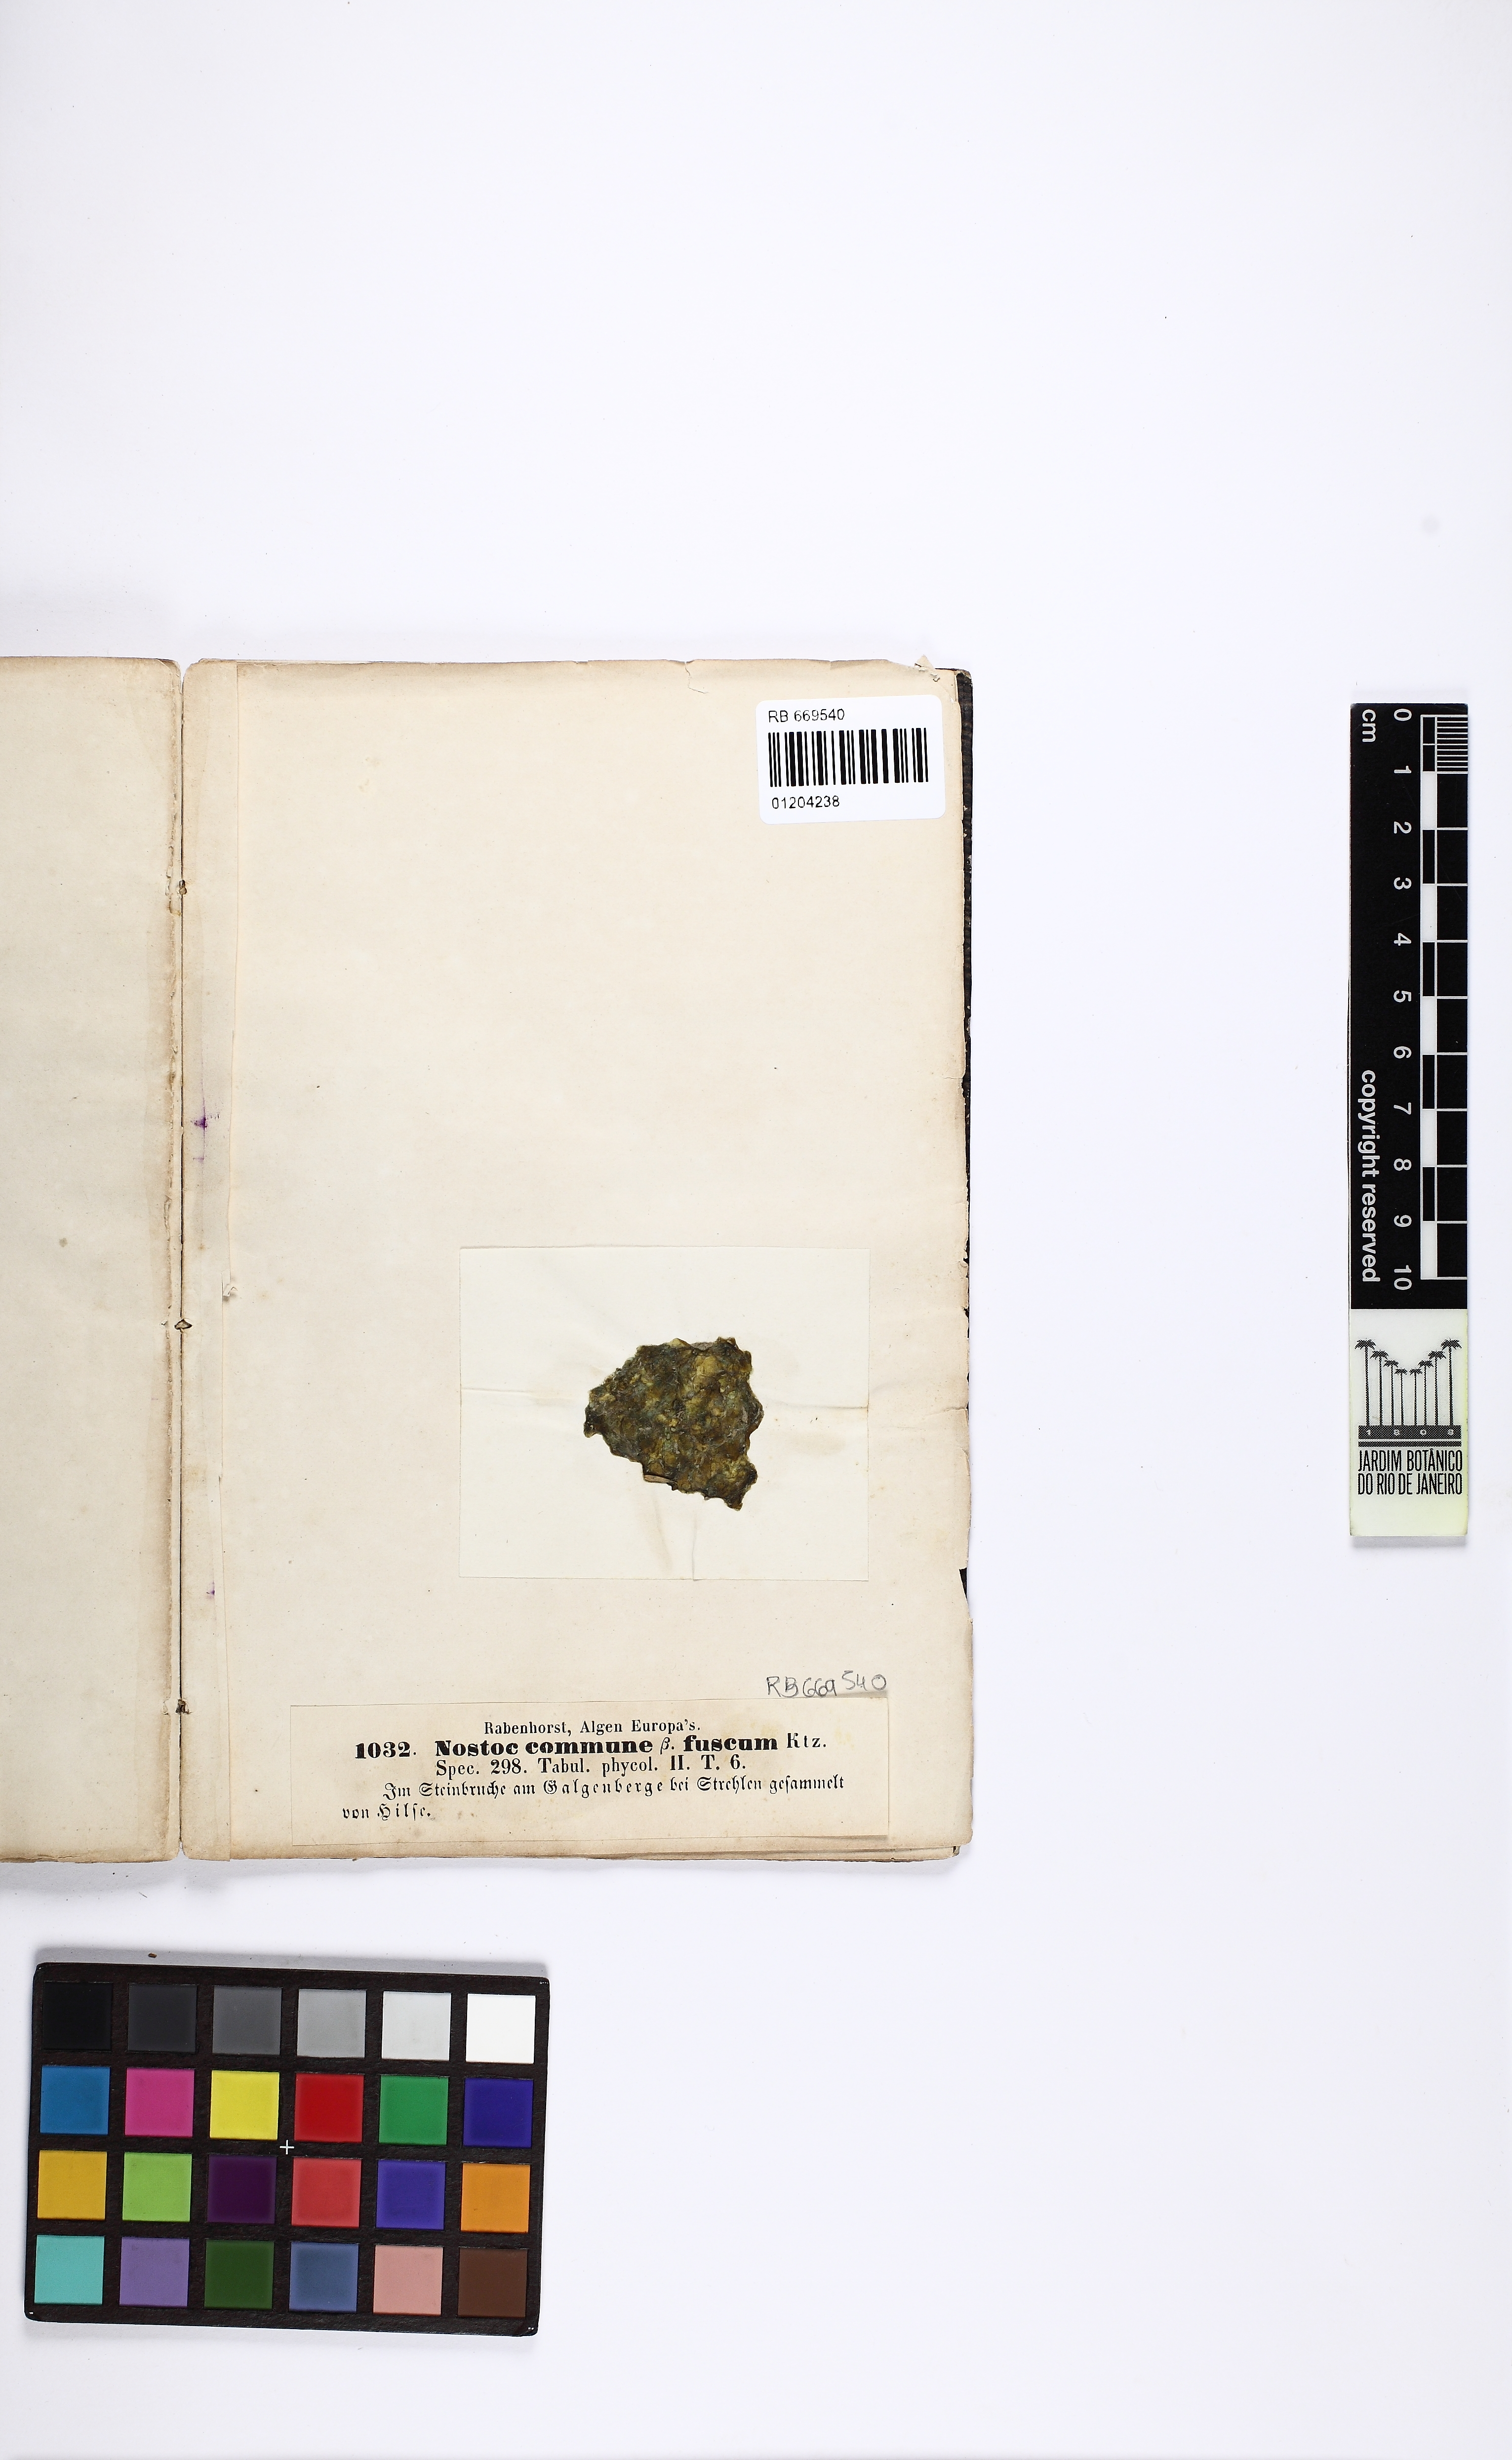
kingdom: Bacteria
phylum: Cyanobacteria
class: Cyanobacteriia
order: Cyanobacteriales
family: Nostocaceae
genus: Nostoc
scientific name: Nostoc commune
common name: Star jelly
